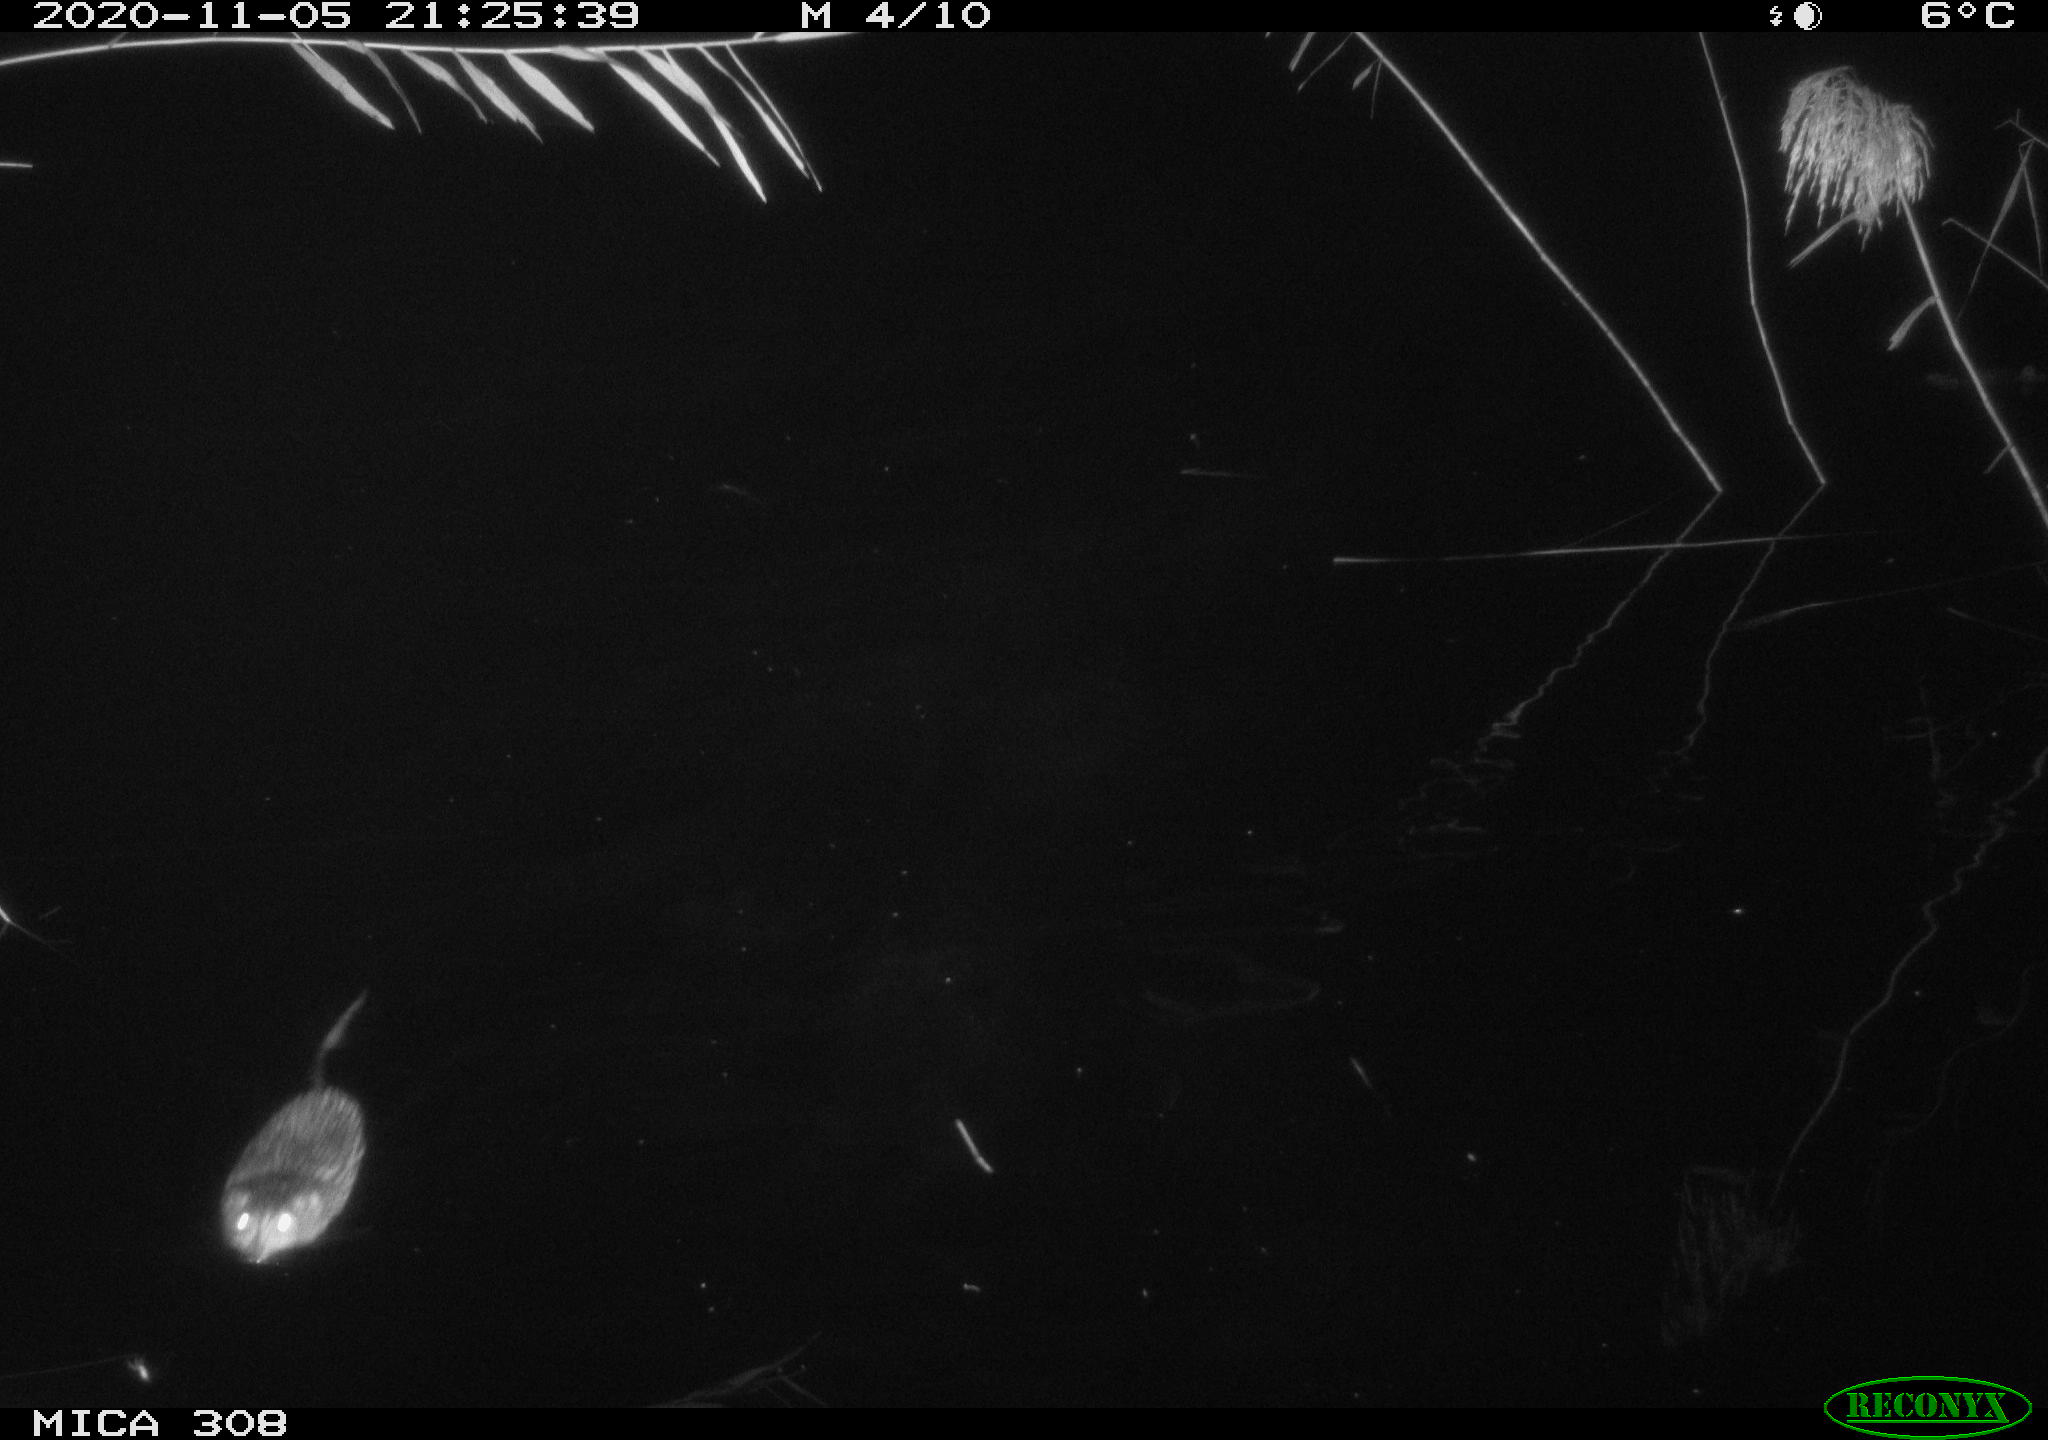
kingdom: Animalia
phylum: Chordata
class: Mammalia
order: Rodentia
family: Cricetidae
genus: Ondatra
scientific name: Ondatra zibethicus
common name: Muskrat
